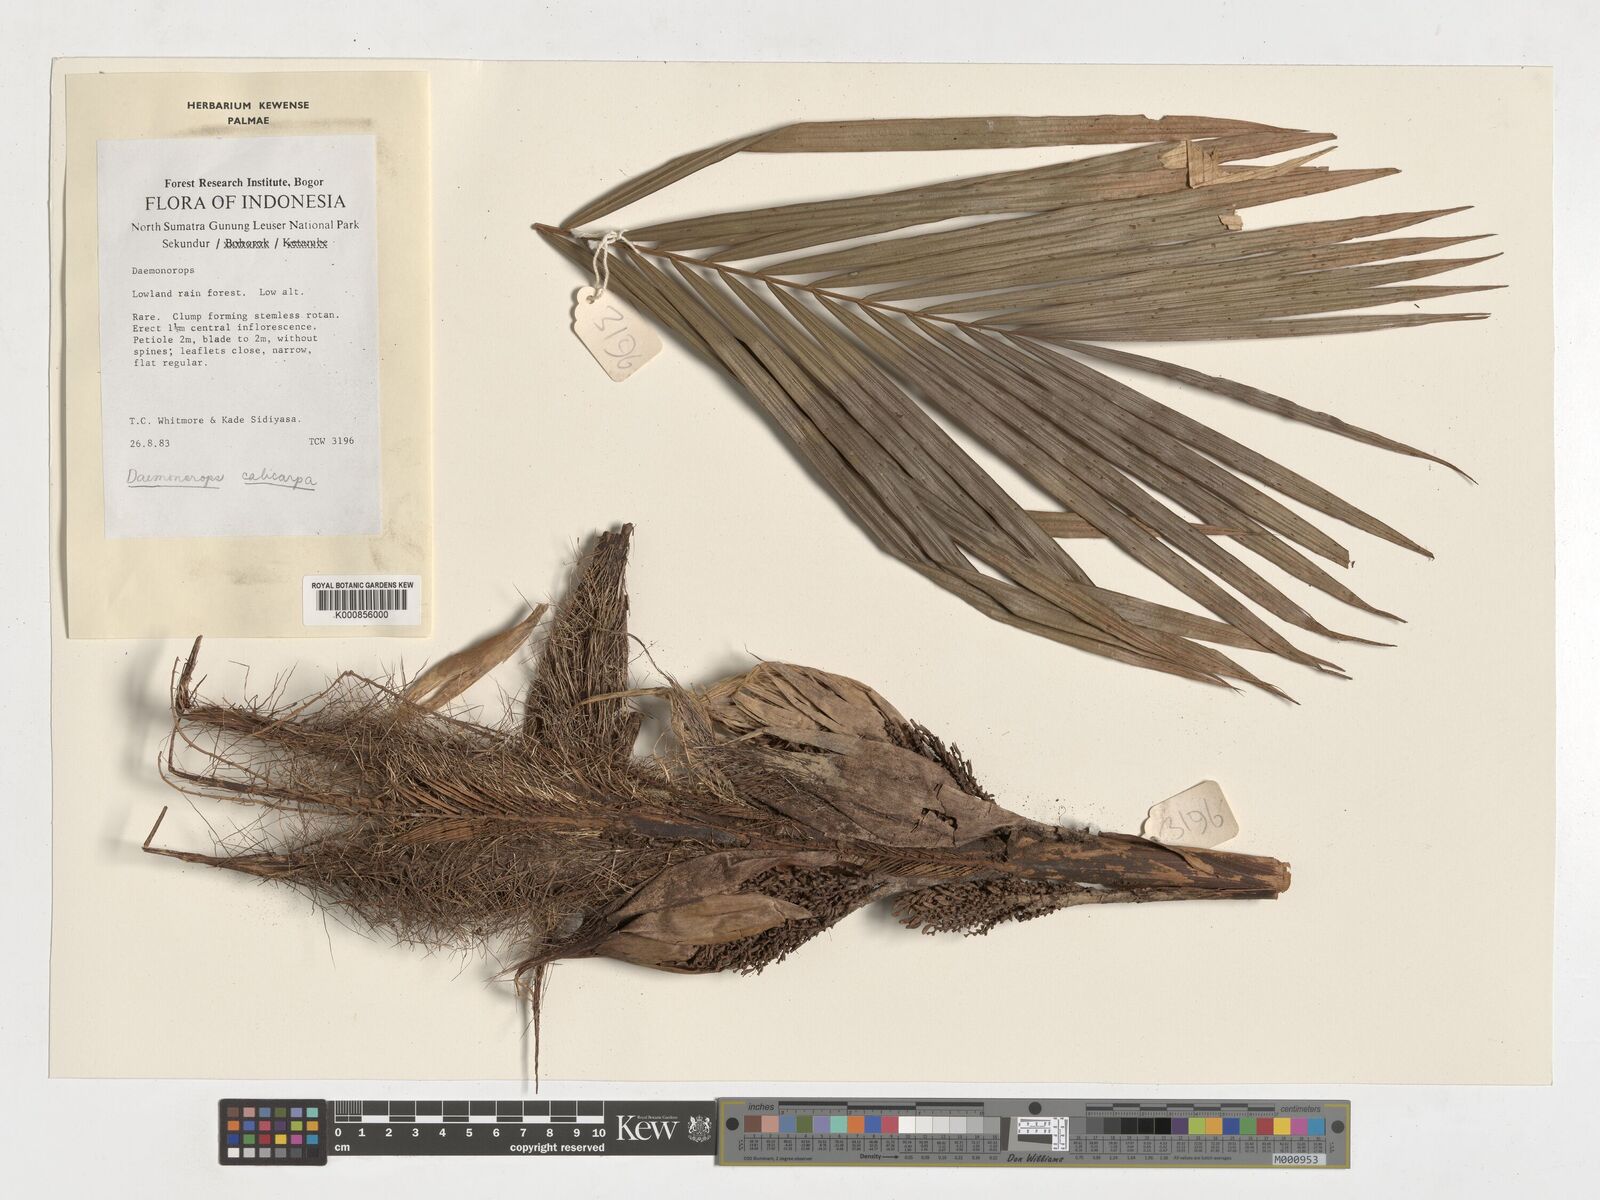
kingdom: Plantae
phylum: Tracheophyta
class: Liliopsida
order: Arecales
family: Arecaceae
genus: Calamus
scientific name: Calamus calicarpus
